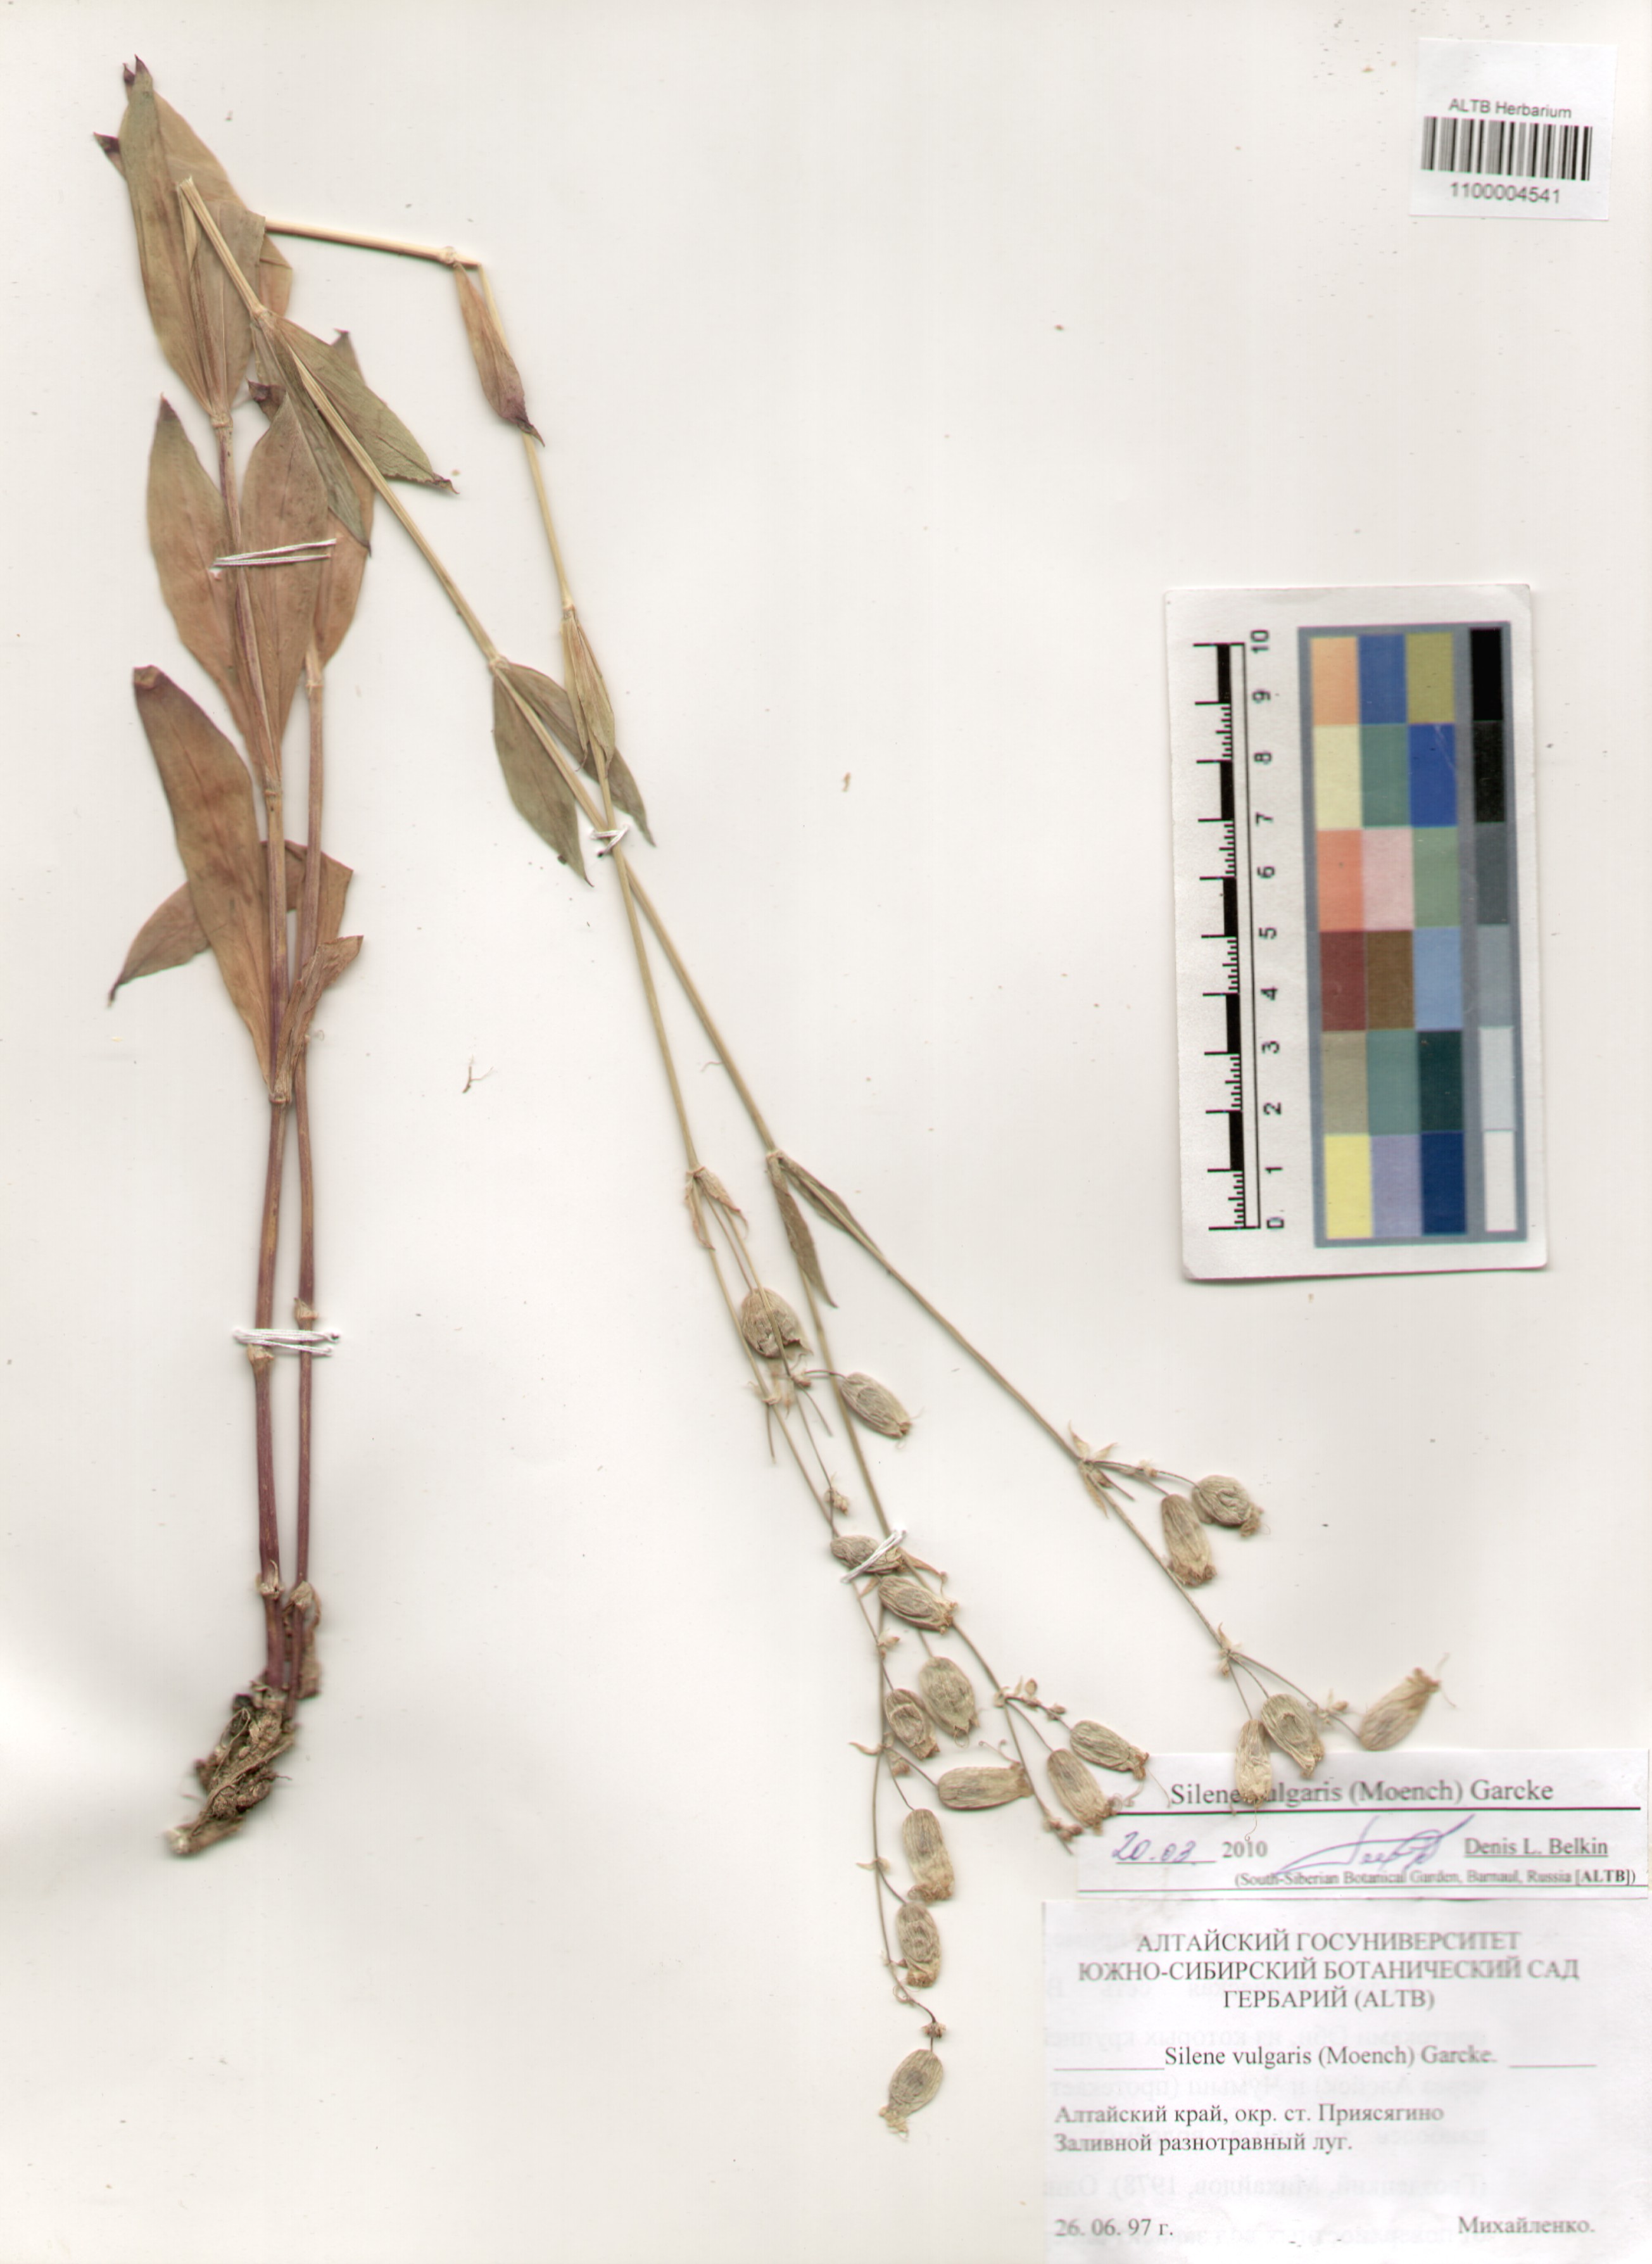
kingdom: Plantae
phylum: Tracheophyta
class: Magnoliopsida
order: Caryophyllales
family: Caryophyllaceae
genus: Silene
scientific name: Silene vulgaris
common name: Bladder campion
